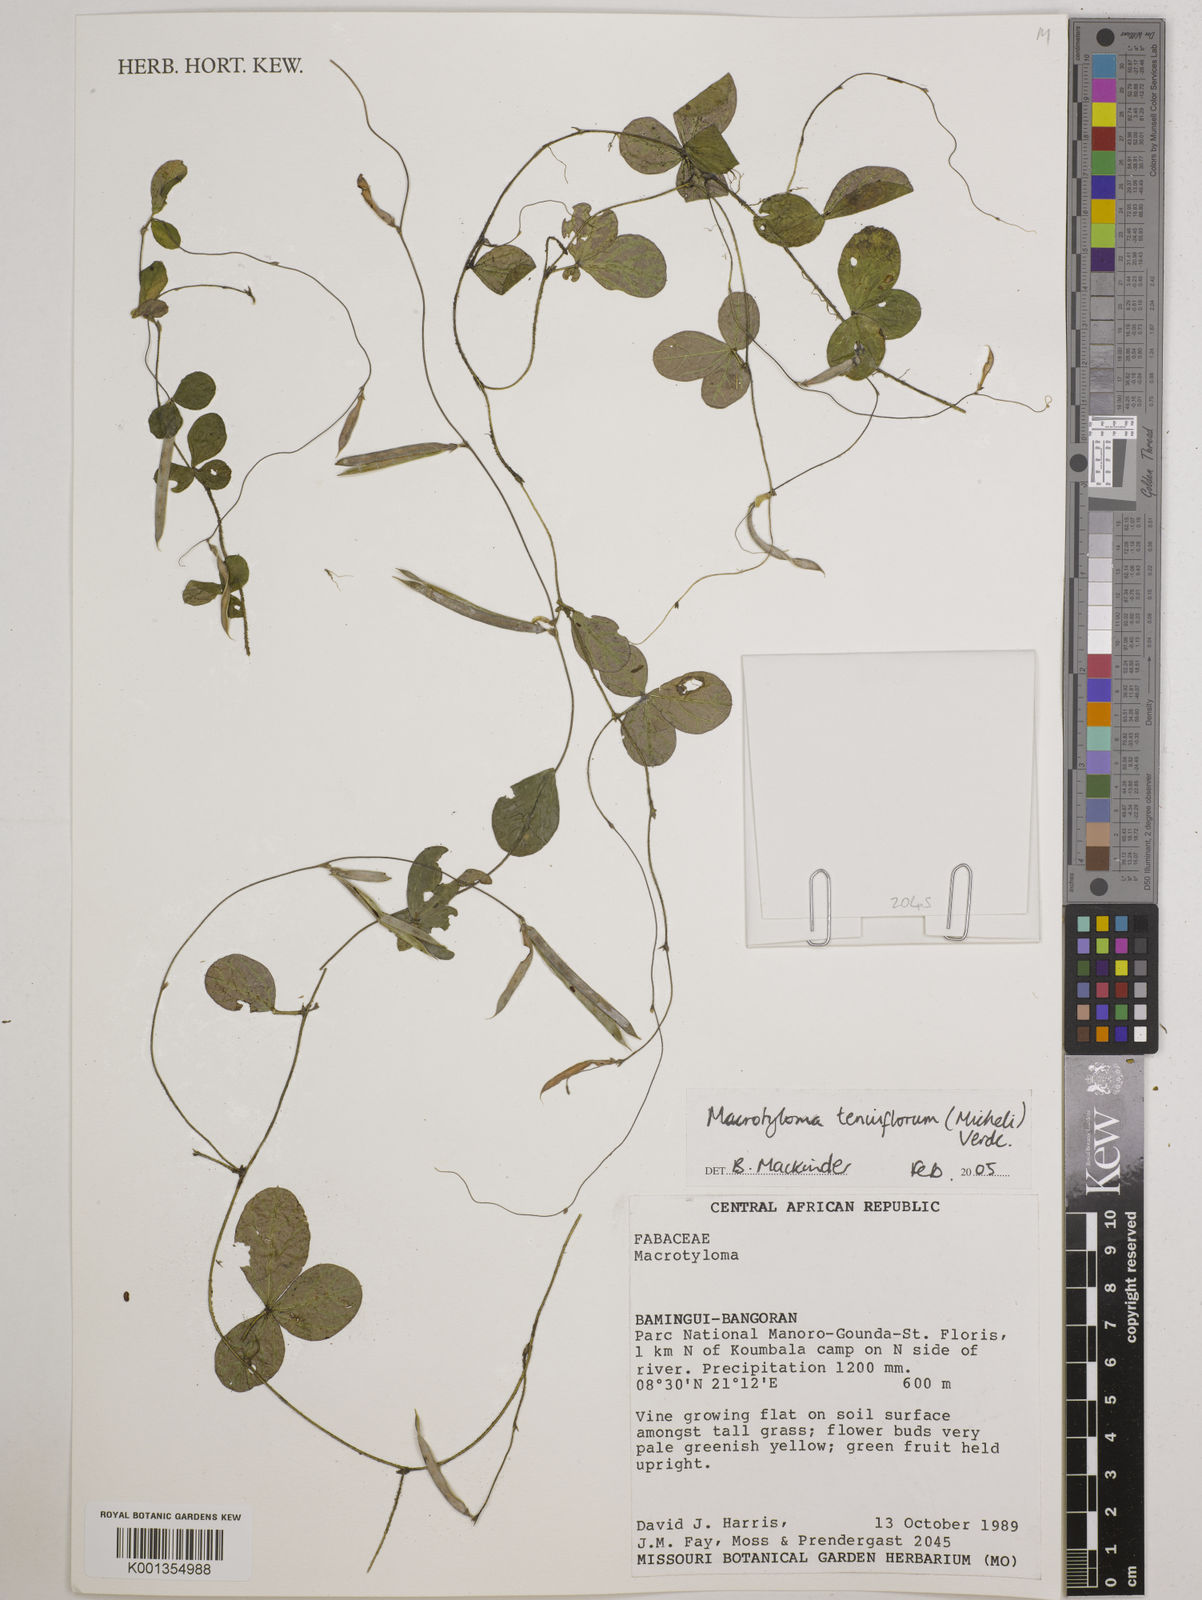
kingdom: Plantae
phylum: Tracheophyta
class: Magnoliopsida
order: Fabales
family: Fabaceae
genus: Macrotyloma
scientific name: Macrotyloma tenuiflorum
